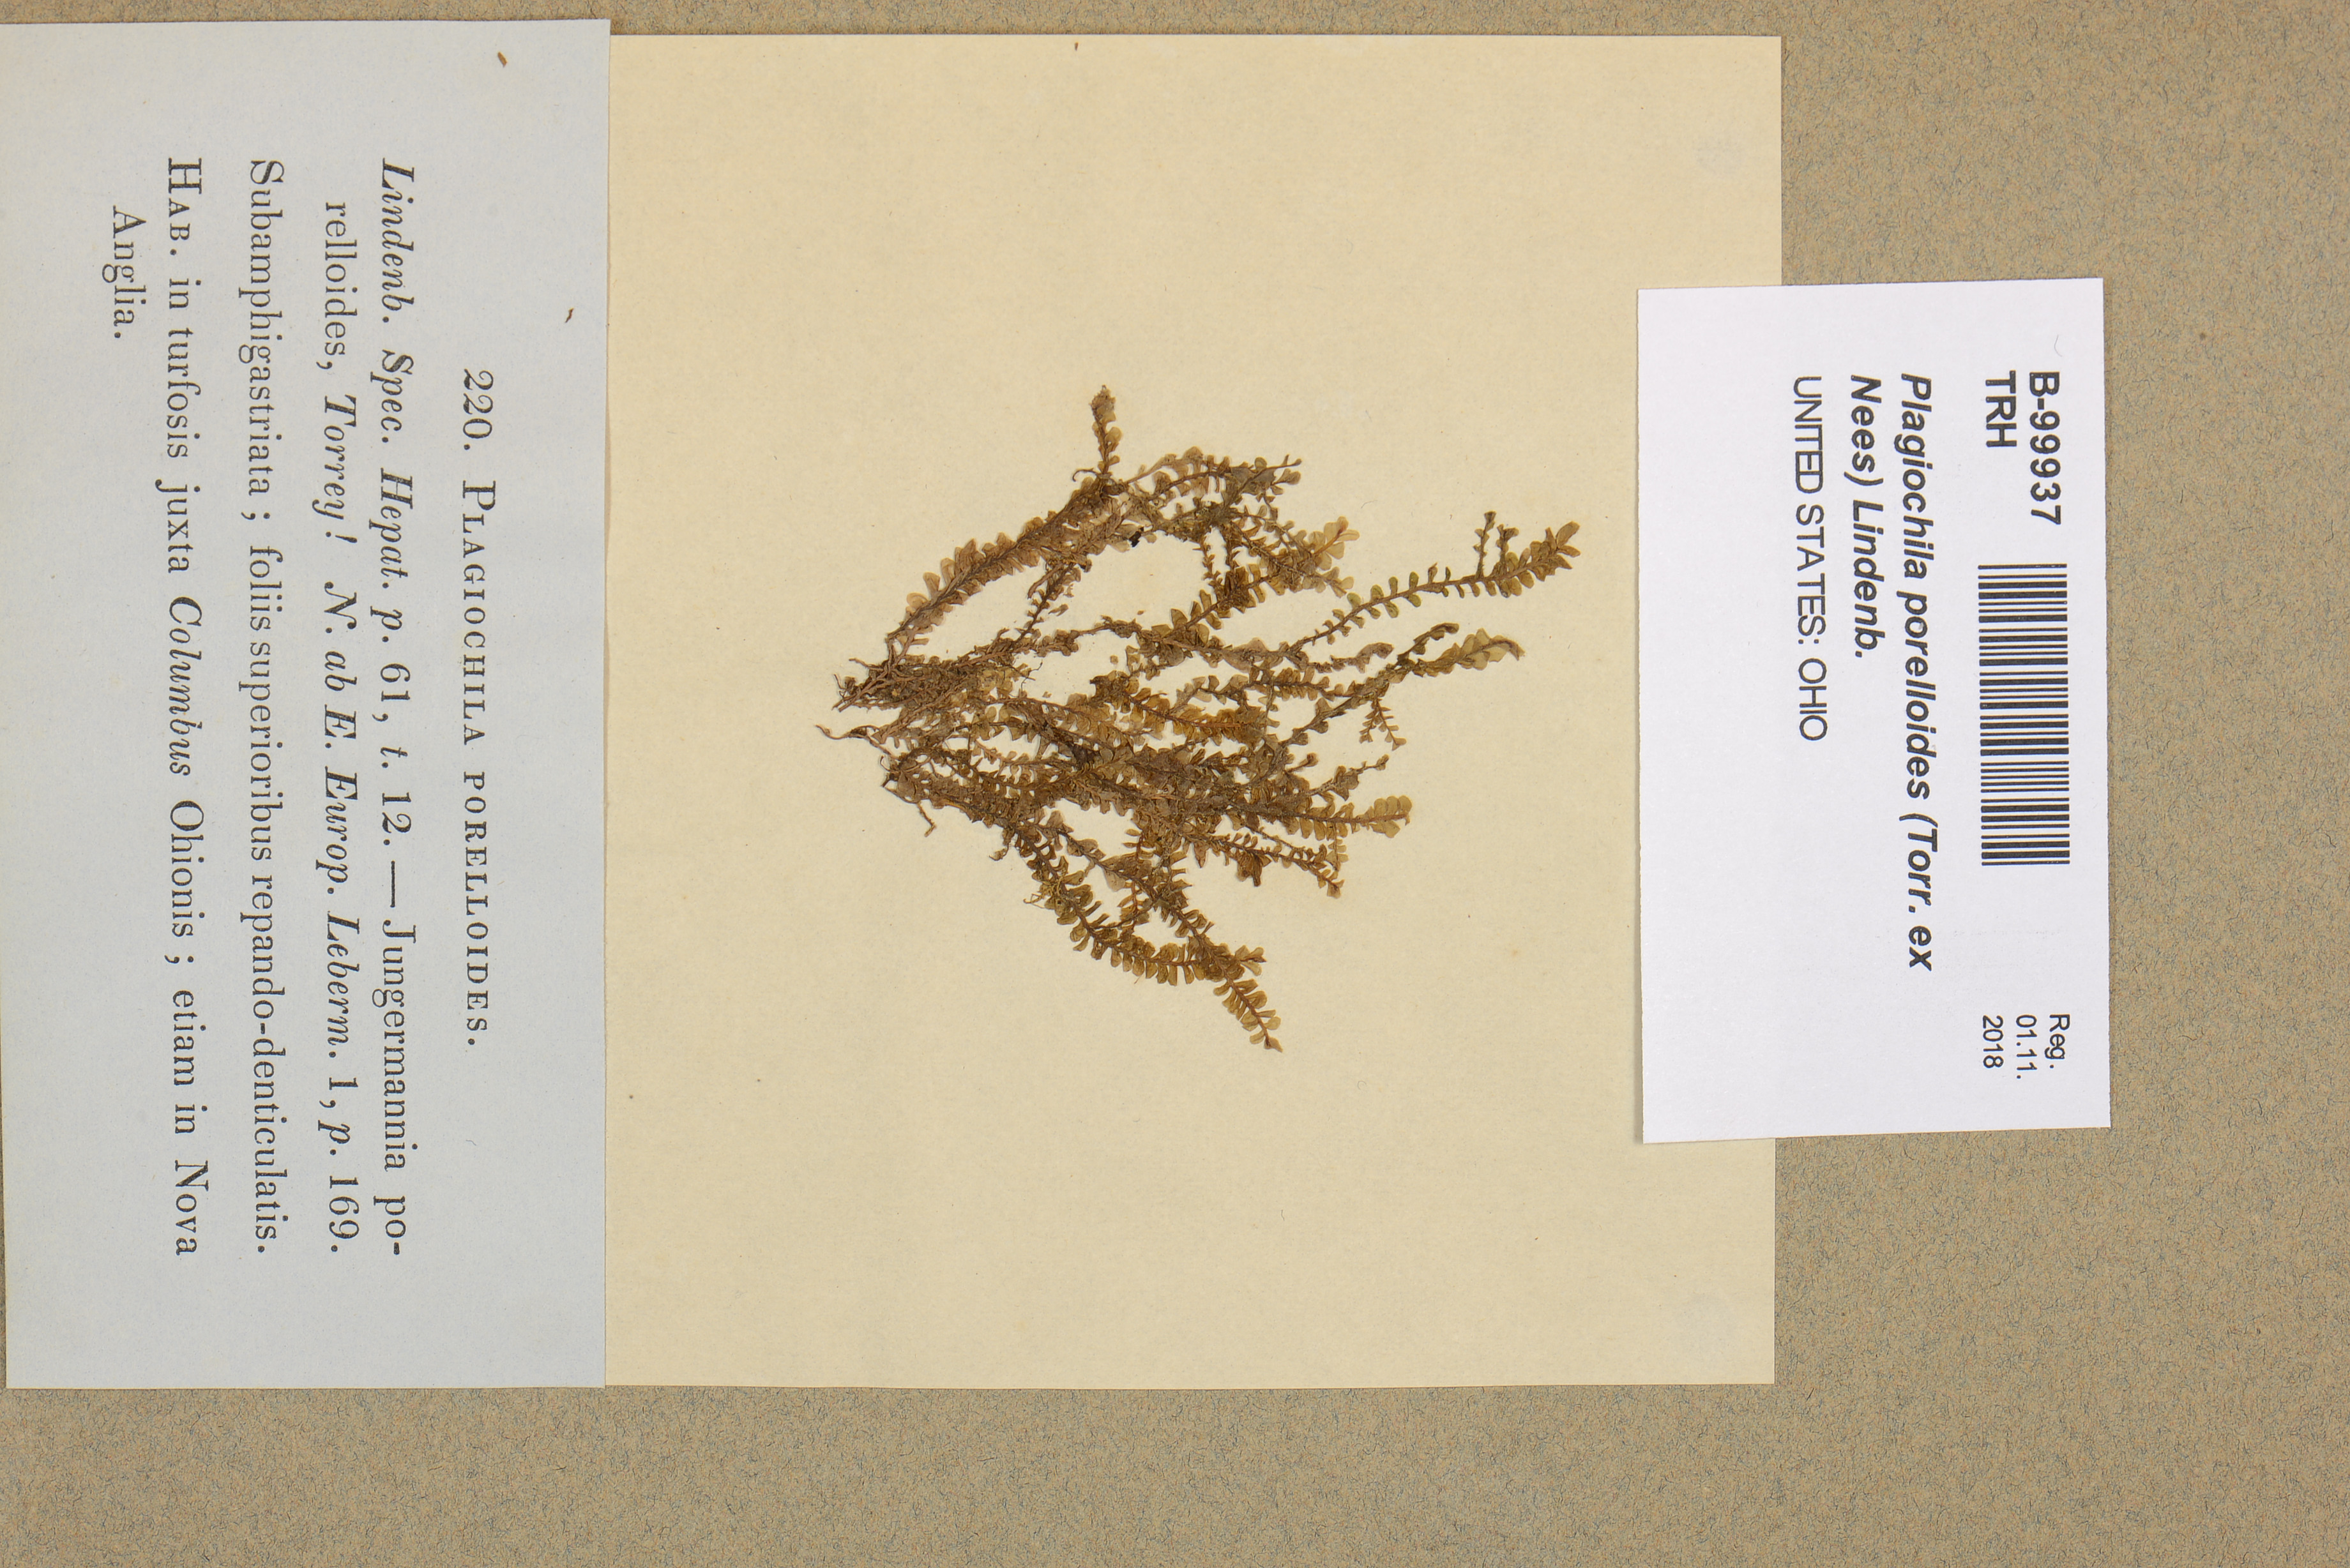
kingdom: Plantae
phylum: Marchantiophyta
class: Jungermanniopsida
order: Jungermanniales
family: Plagiochilaceae
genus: Plagiochila
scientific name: Plagiochila porelloides
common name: Lesser featherwort
